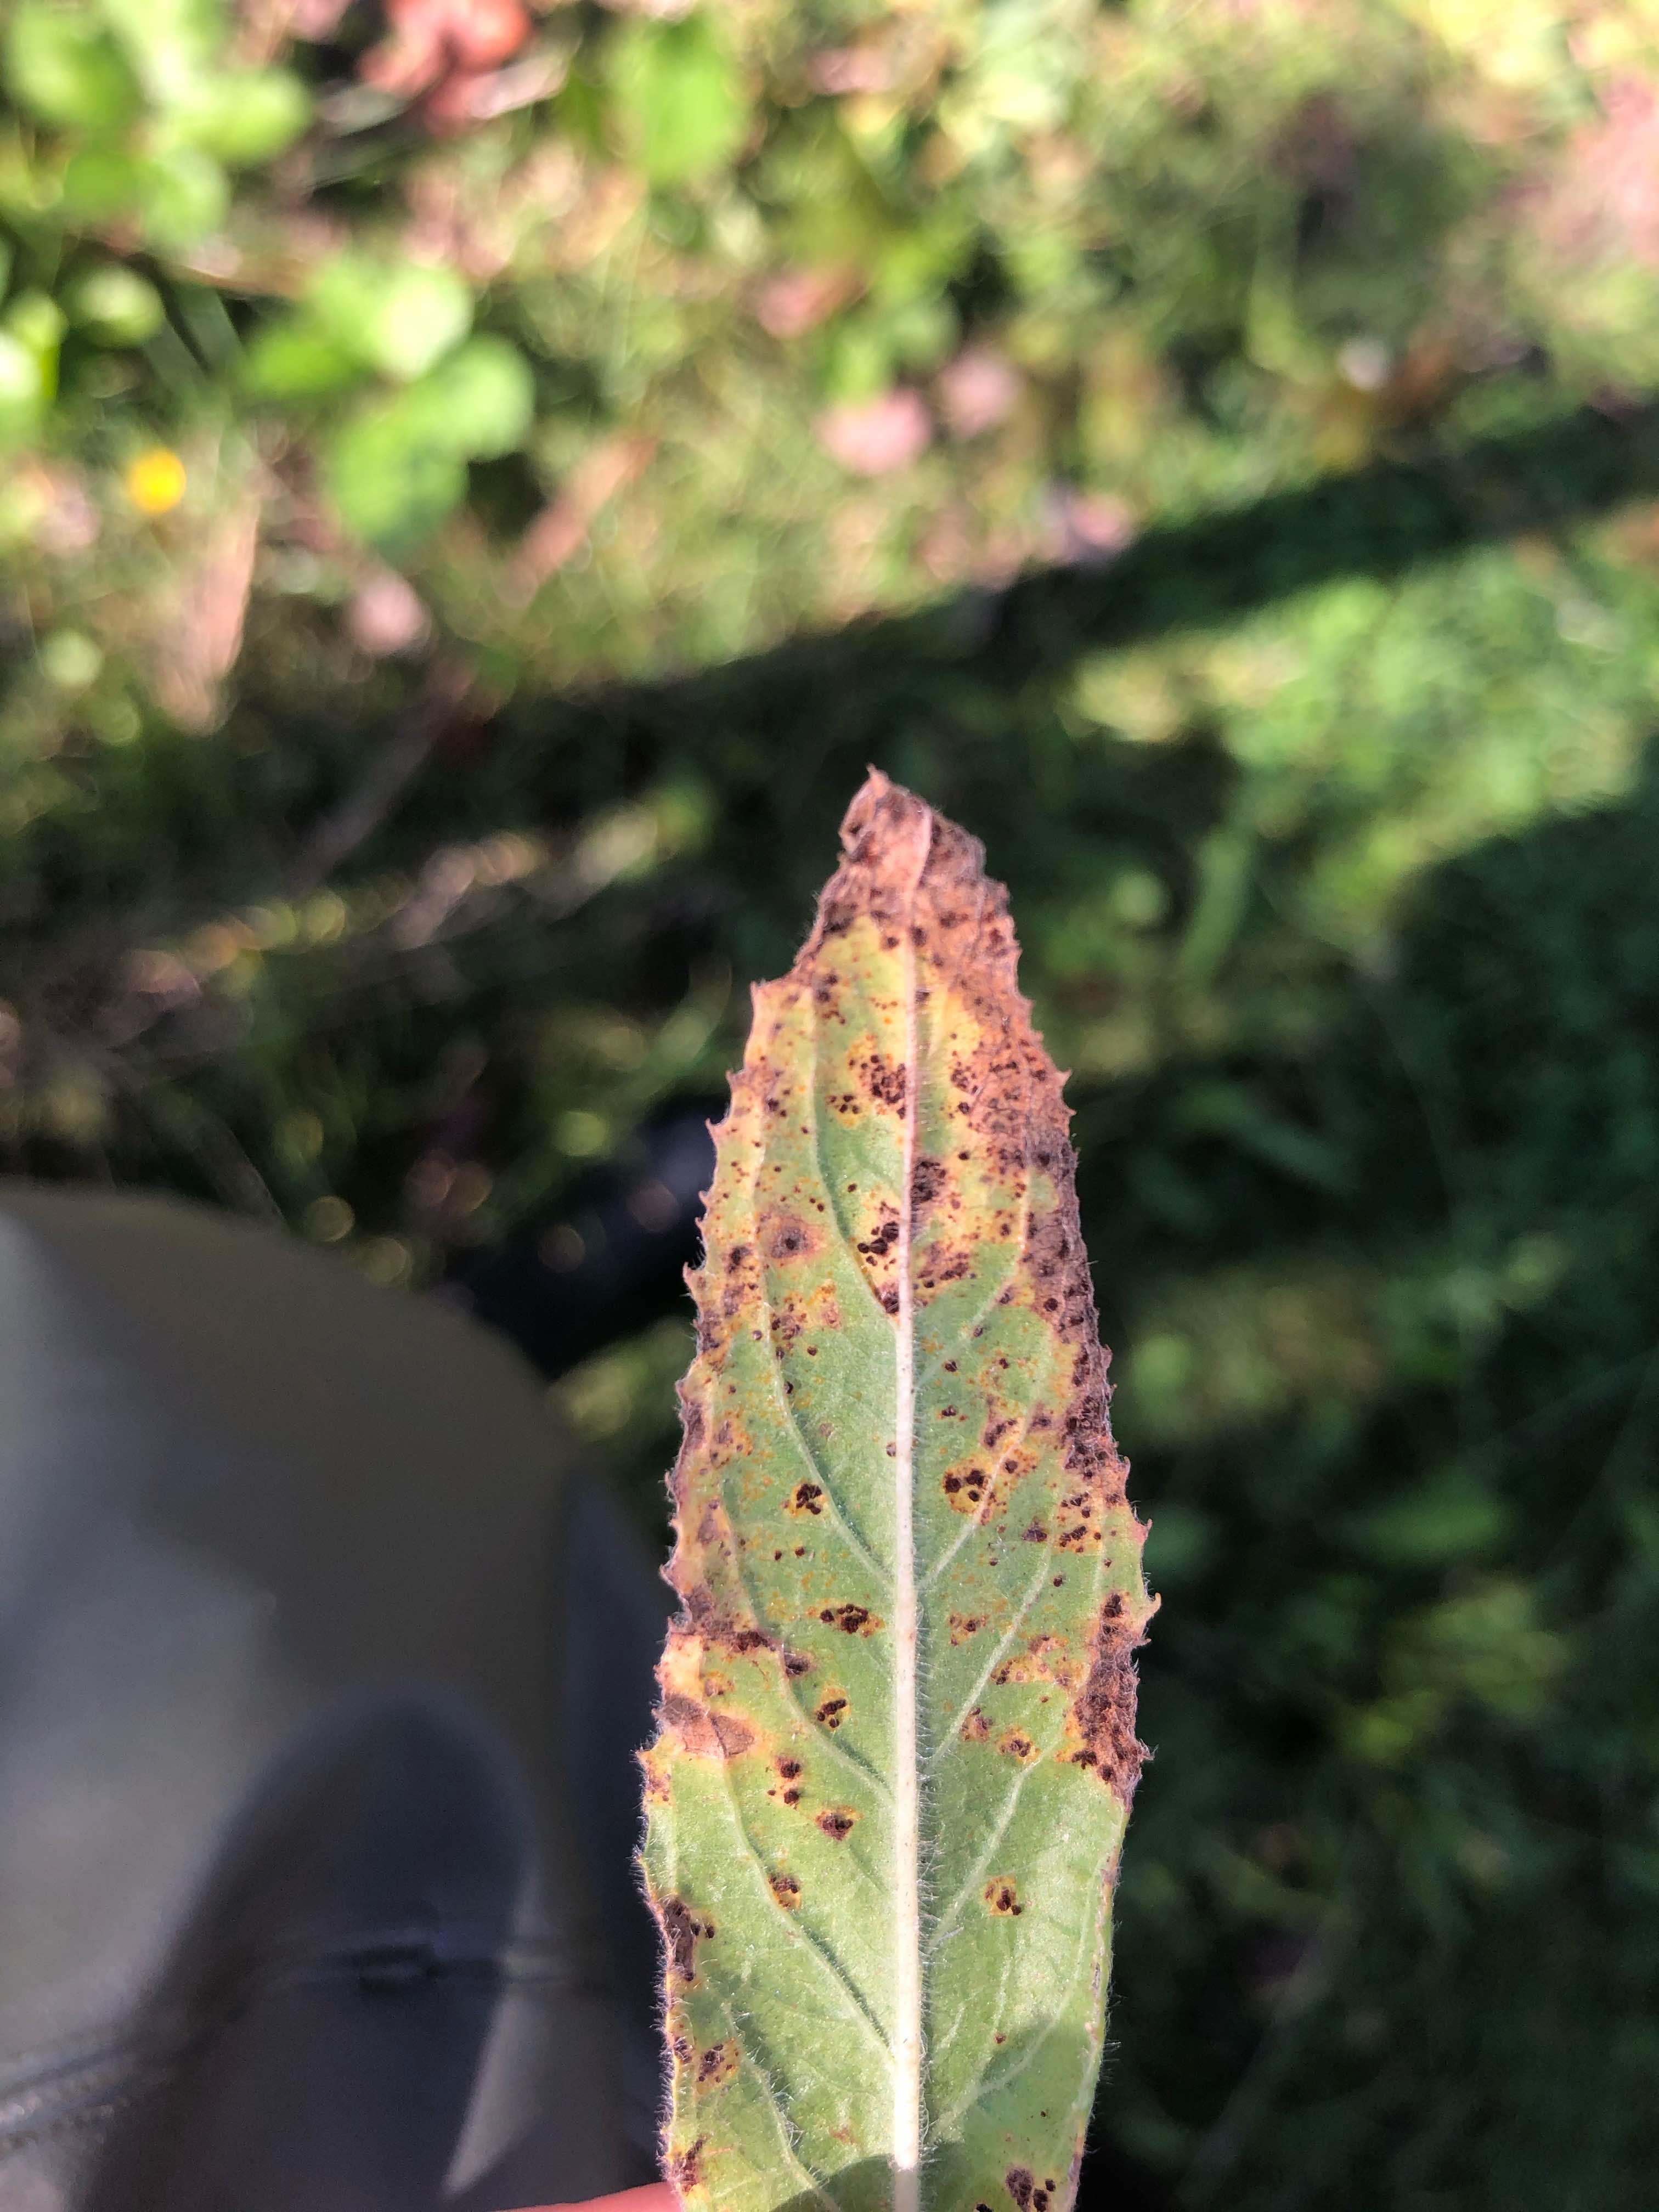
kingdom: Fungi
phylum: Basidiomycota
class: Pucciniomycetes
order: Pucciniales
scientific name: Pucciniales
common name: rustsvampeordenen
